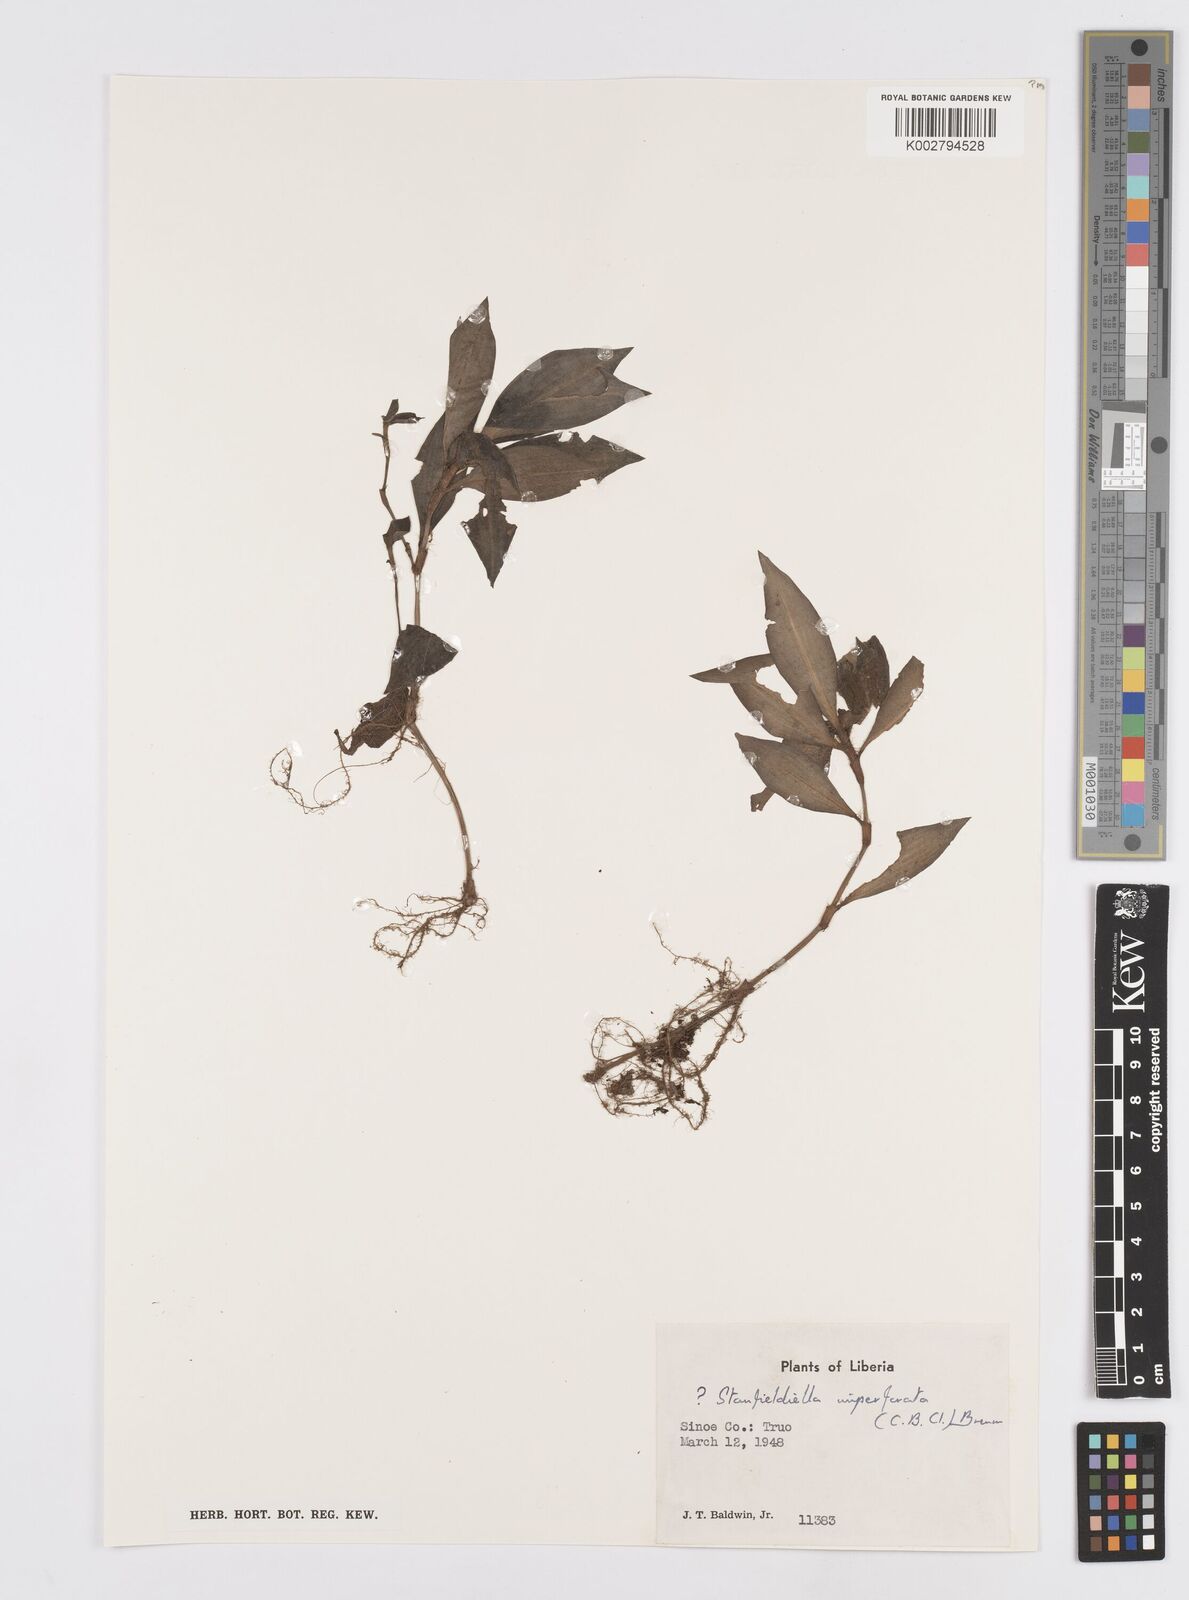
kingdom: Plantae
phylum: Tracheophyta
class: Liliopsida
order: Commelinales
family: Commelinaceae
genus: Stanfieldiella
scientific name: Stanfieldiella imperforata
